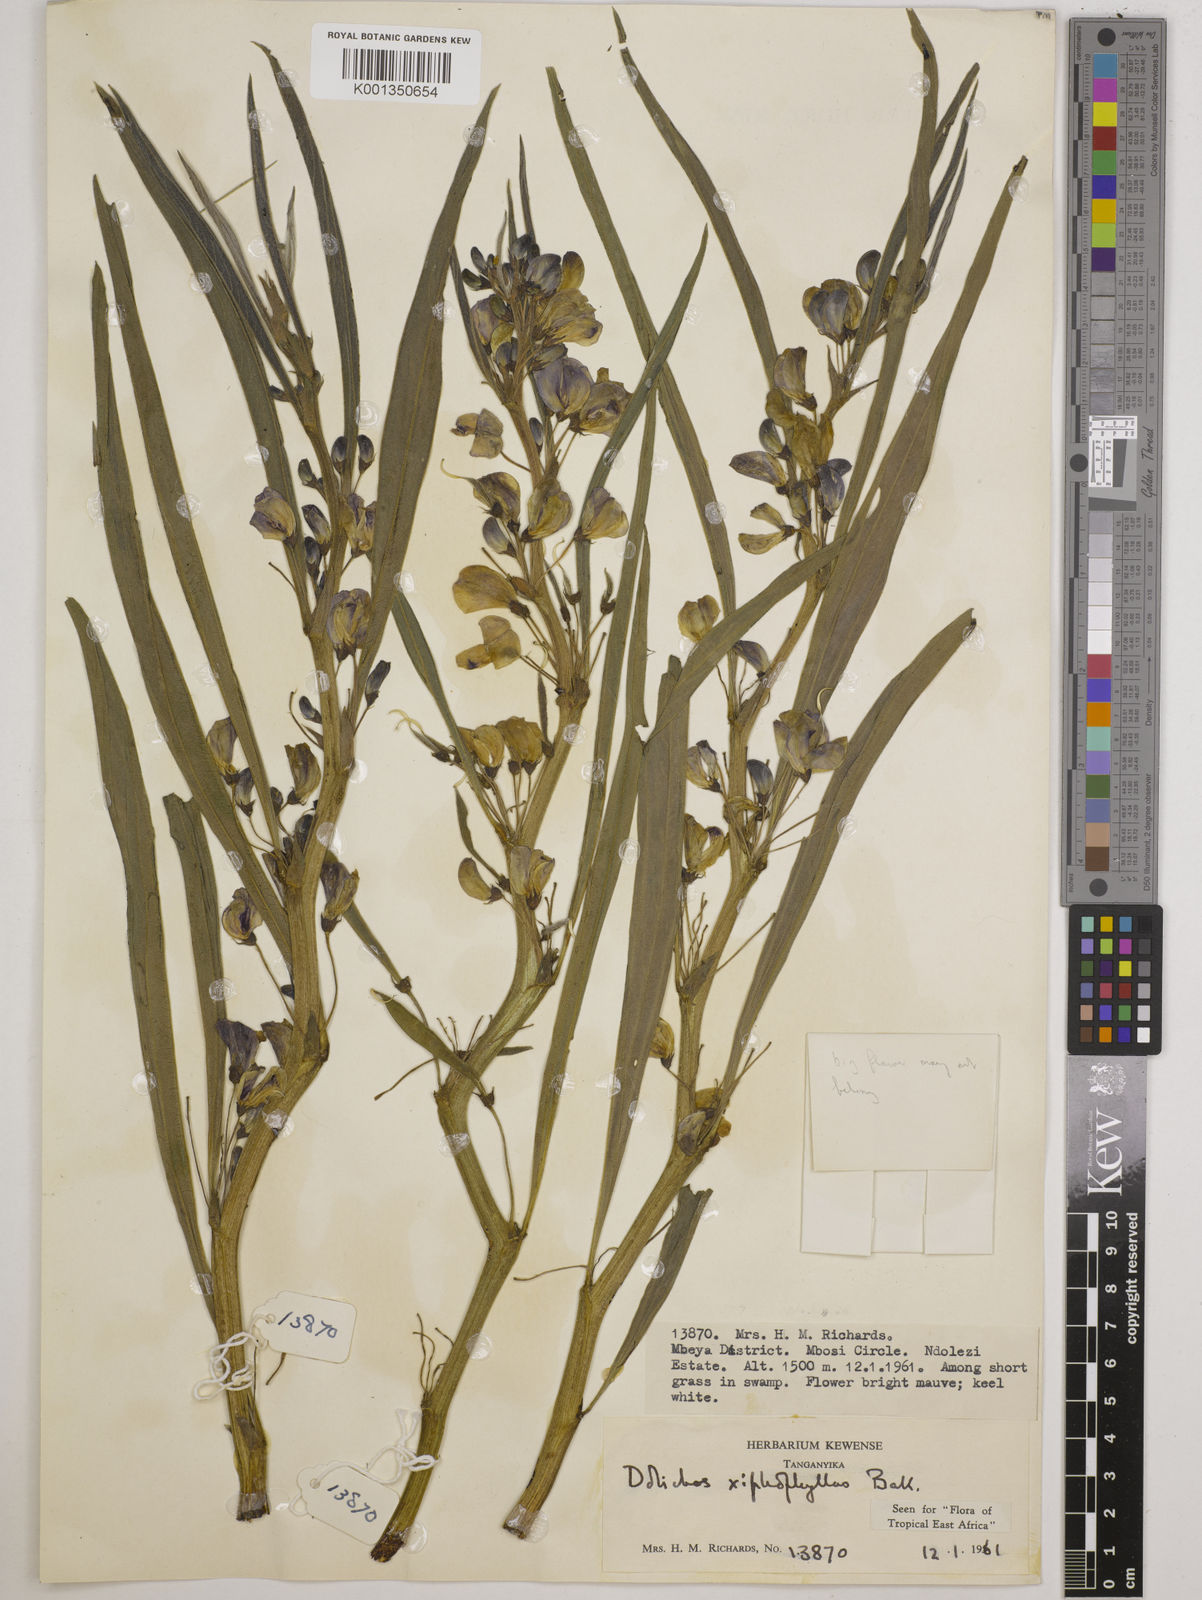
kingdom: Plantae
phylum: Tracheophyta
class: Magnoliopsida
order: Fabales
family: Fabaceae
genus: Dolichos
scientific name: Dolichos xiphophyllus
